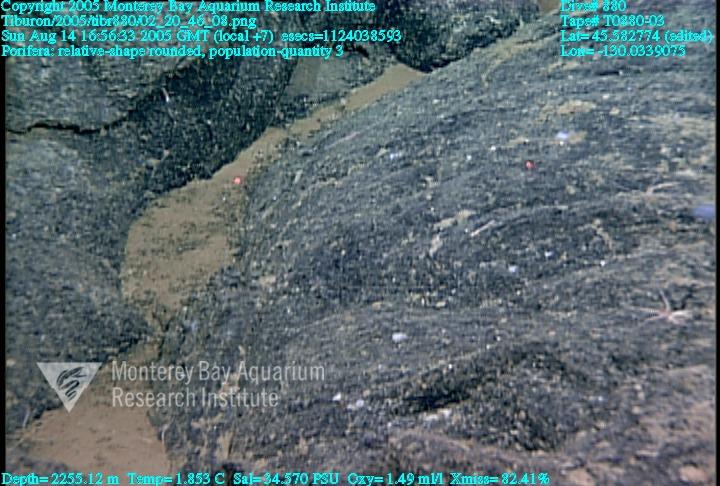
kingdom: Animalia
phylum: Porifera
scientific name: Porifera
